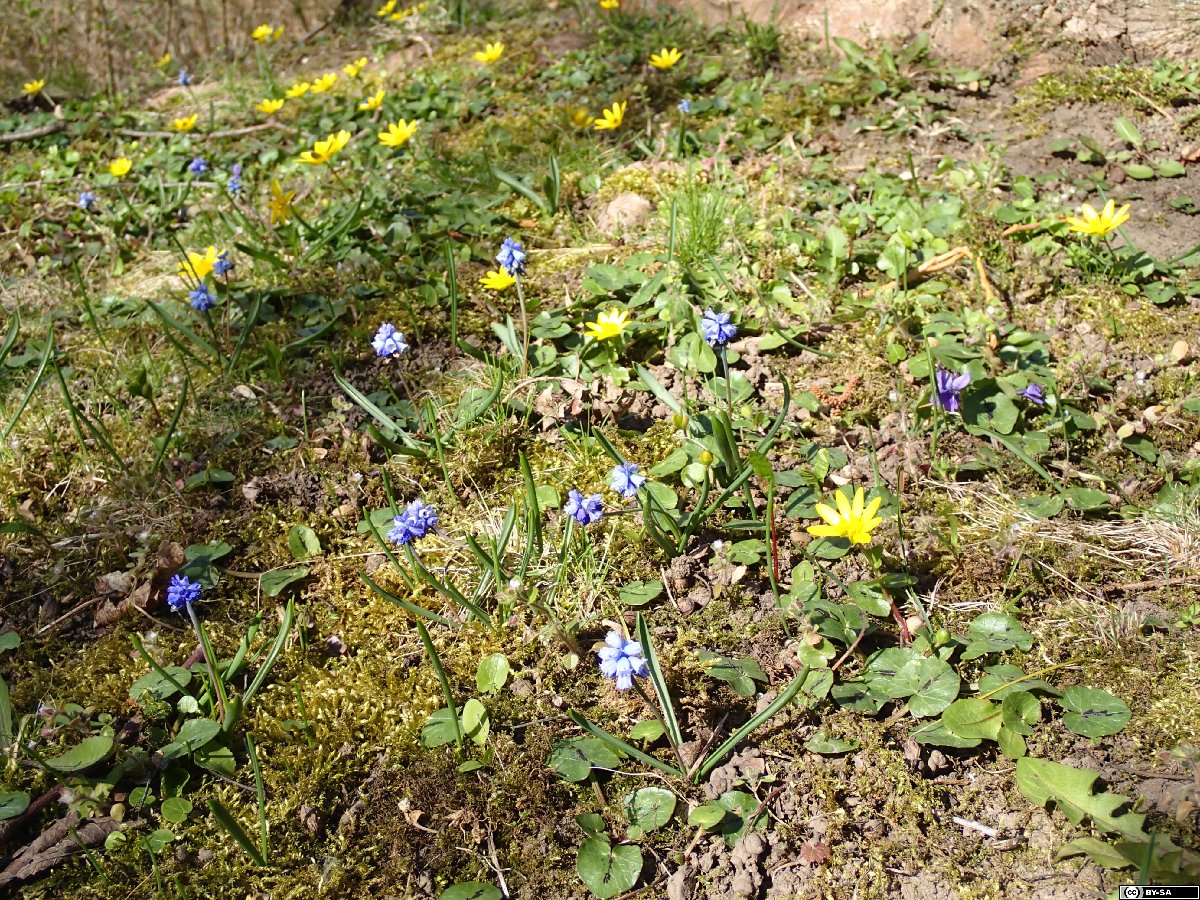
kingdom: Plantae
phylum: Tracheophyta
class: Liliopsida
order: Asparagales
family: Asparagaceae
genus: Muscari
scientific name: Muscari azureum
